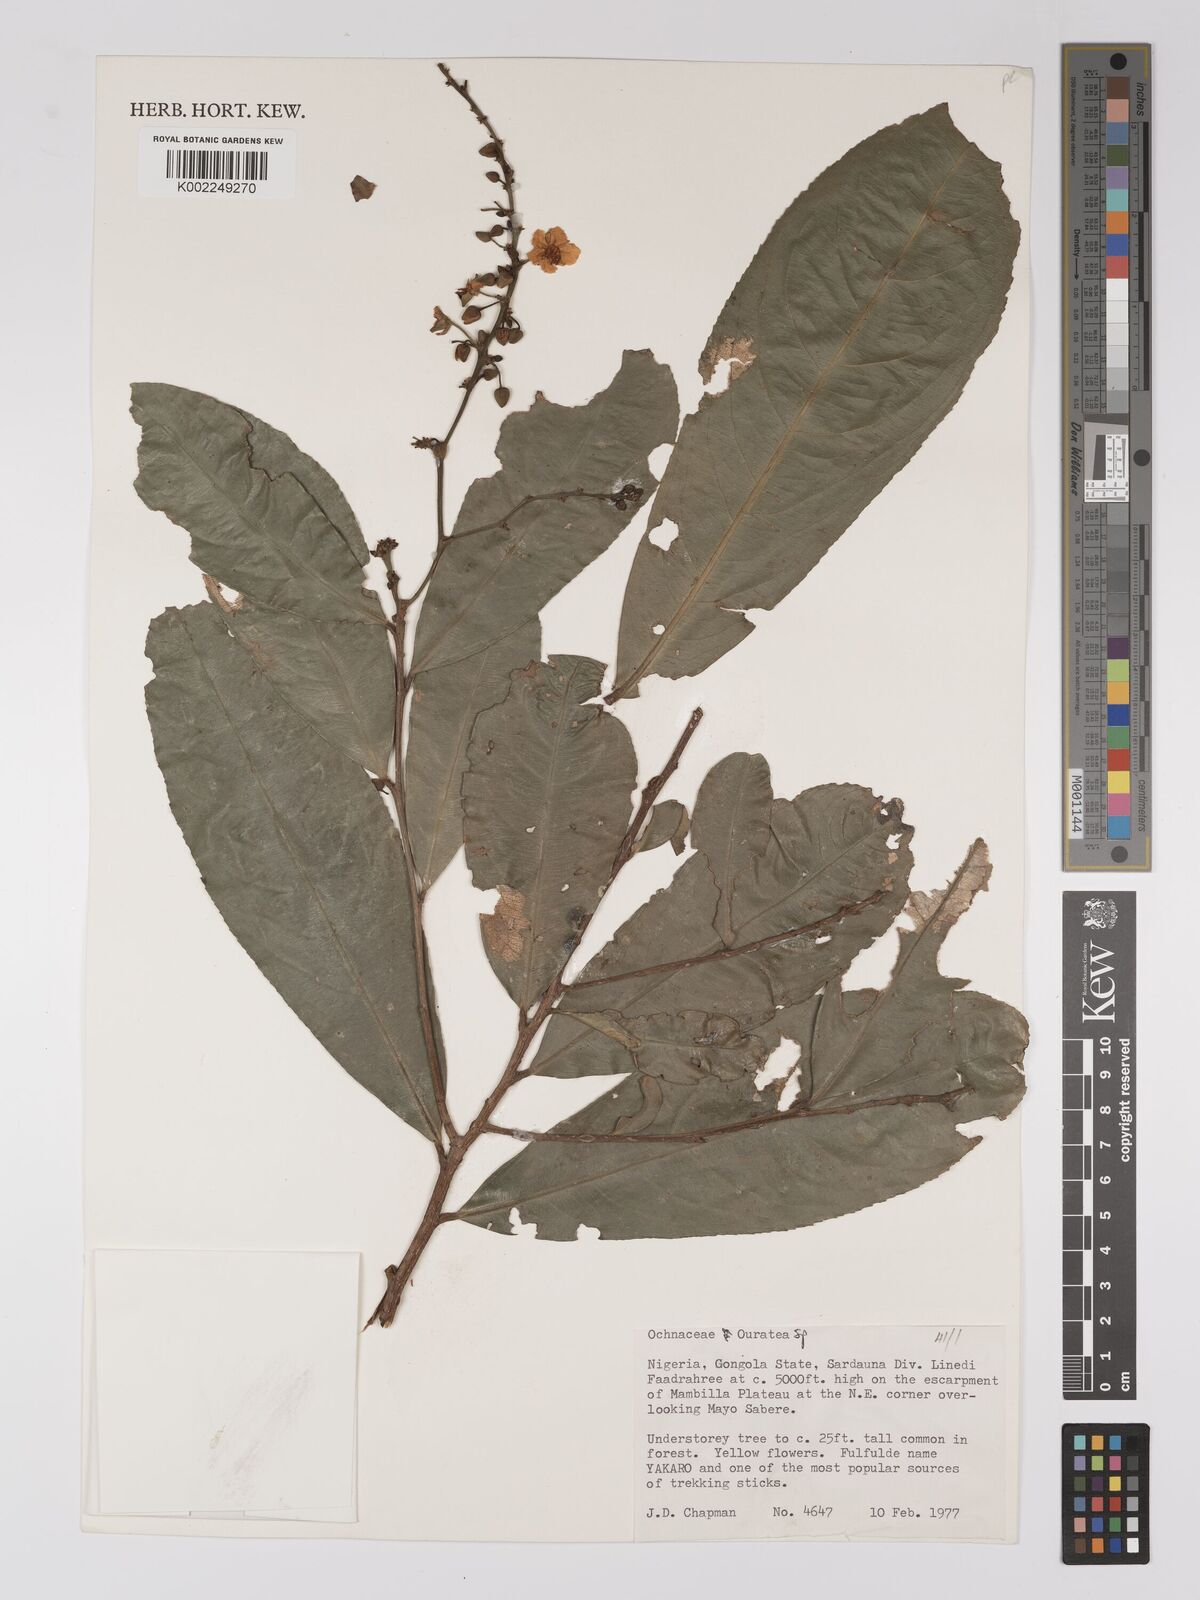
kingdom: Plantae
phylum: Tracheophyta
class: Magnoliopsida
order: Malpighiales
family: Ochnaceae
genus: Campylospermum
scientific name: Campylospermum
